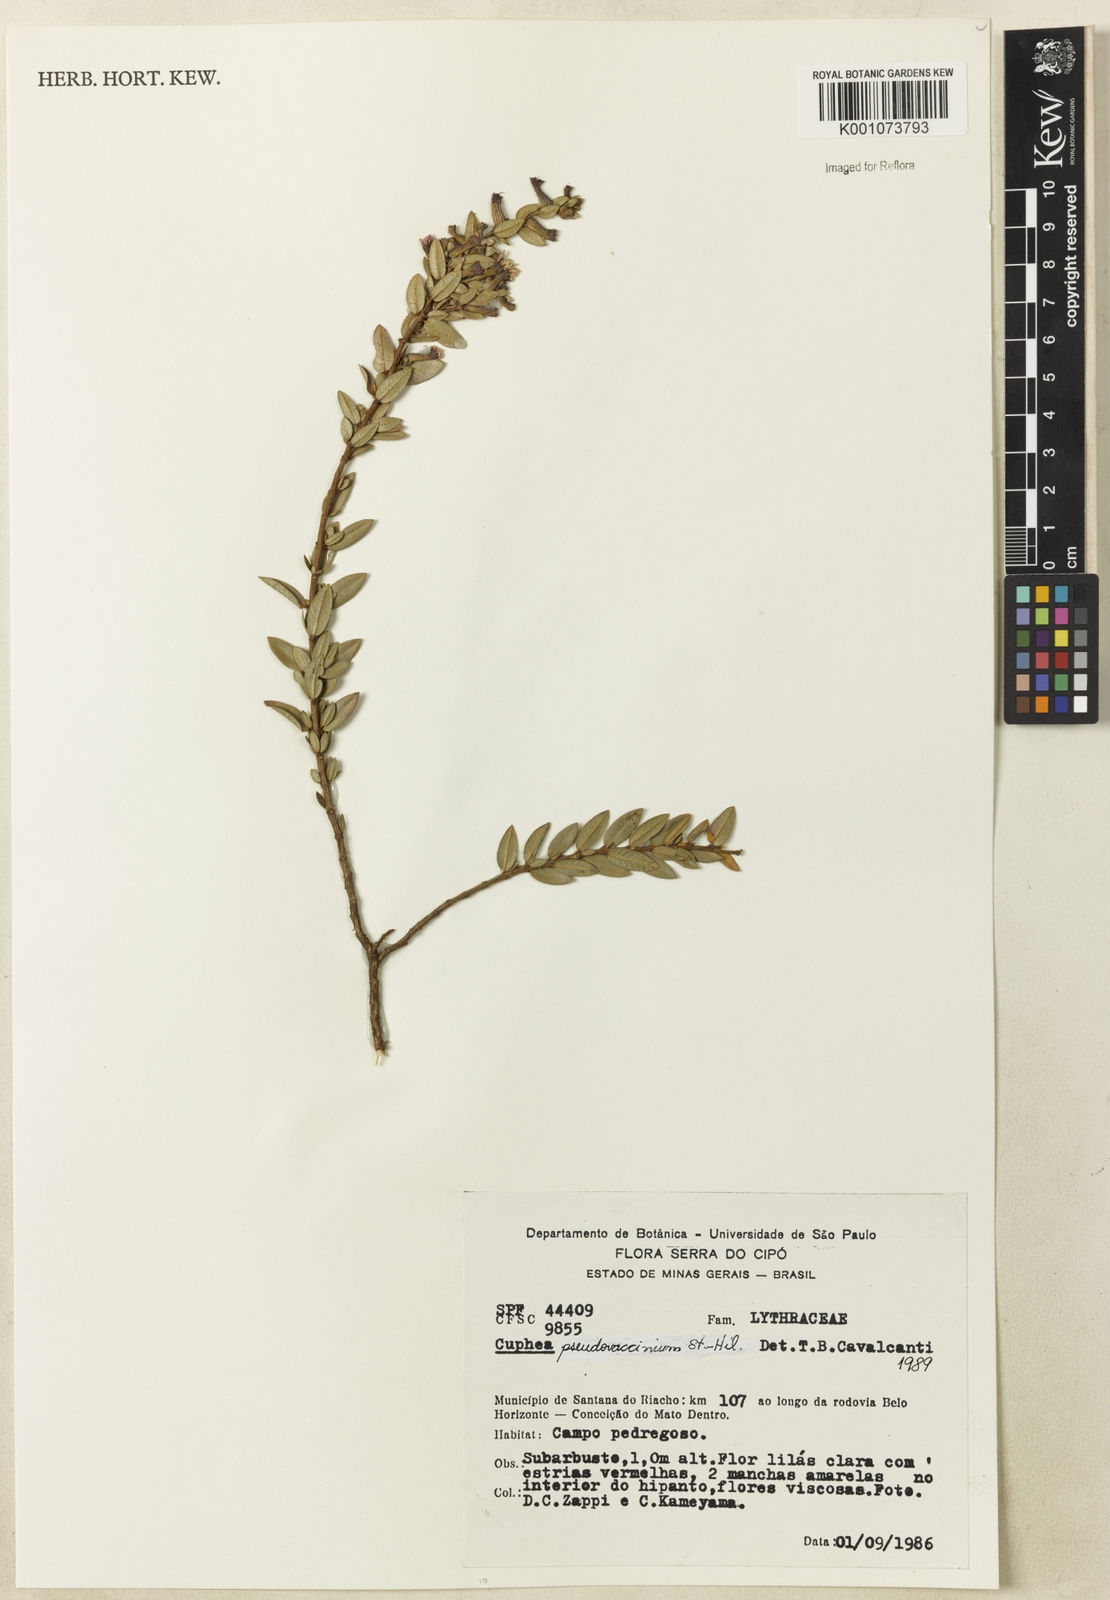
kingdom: Plantae
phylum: Tracheophyta
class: Magnoliopsida
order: Myrtales
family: Lythraceae
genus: Cuphea
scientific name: Cuphea pseudovaccinium
